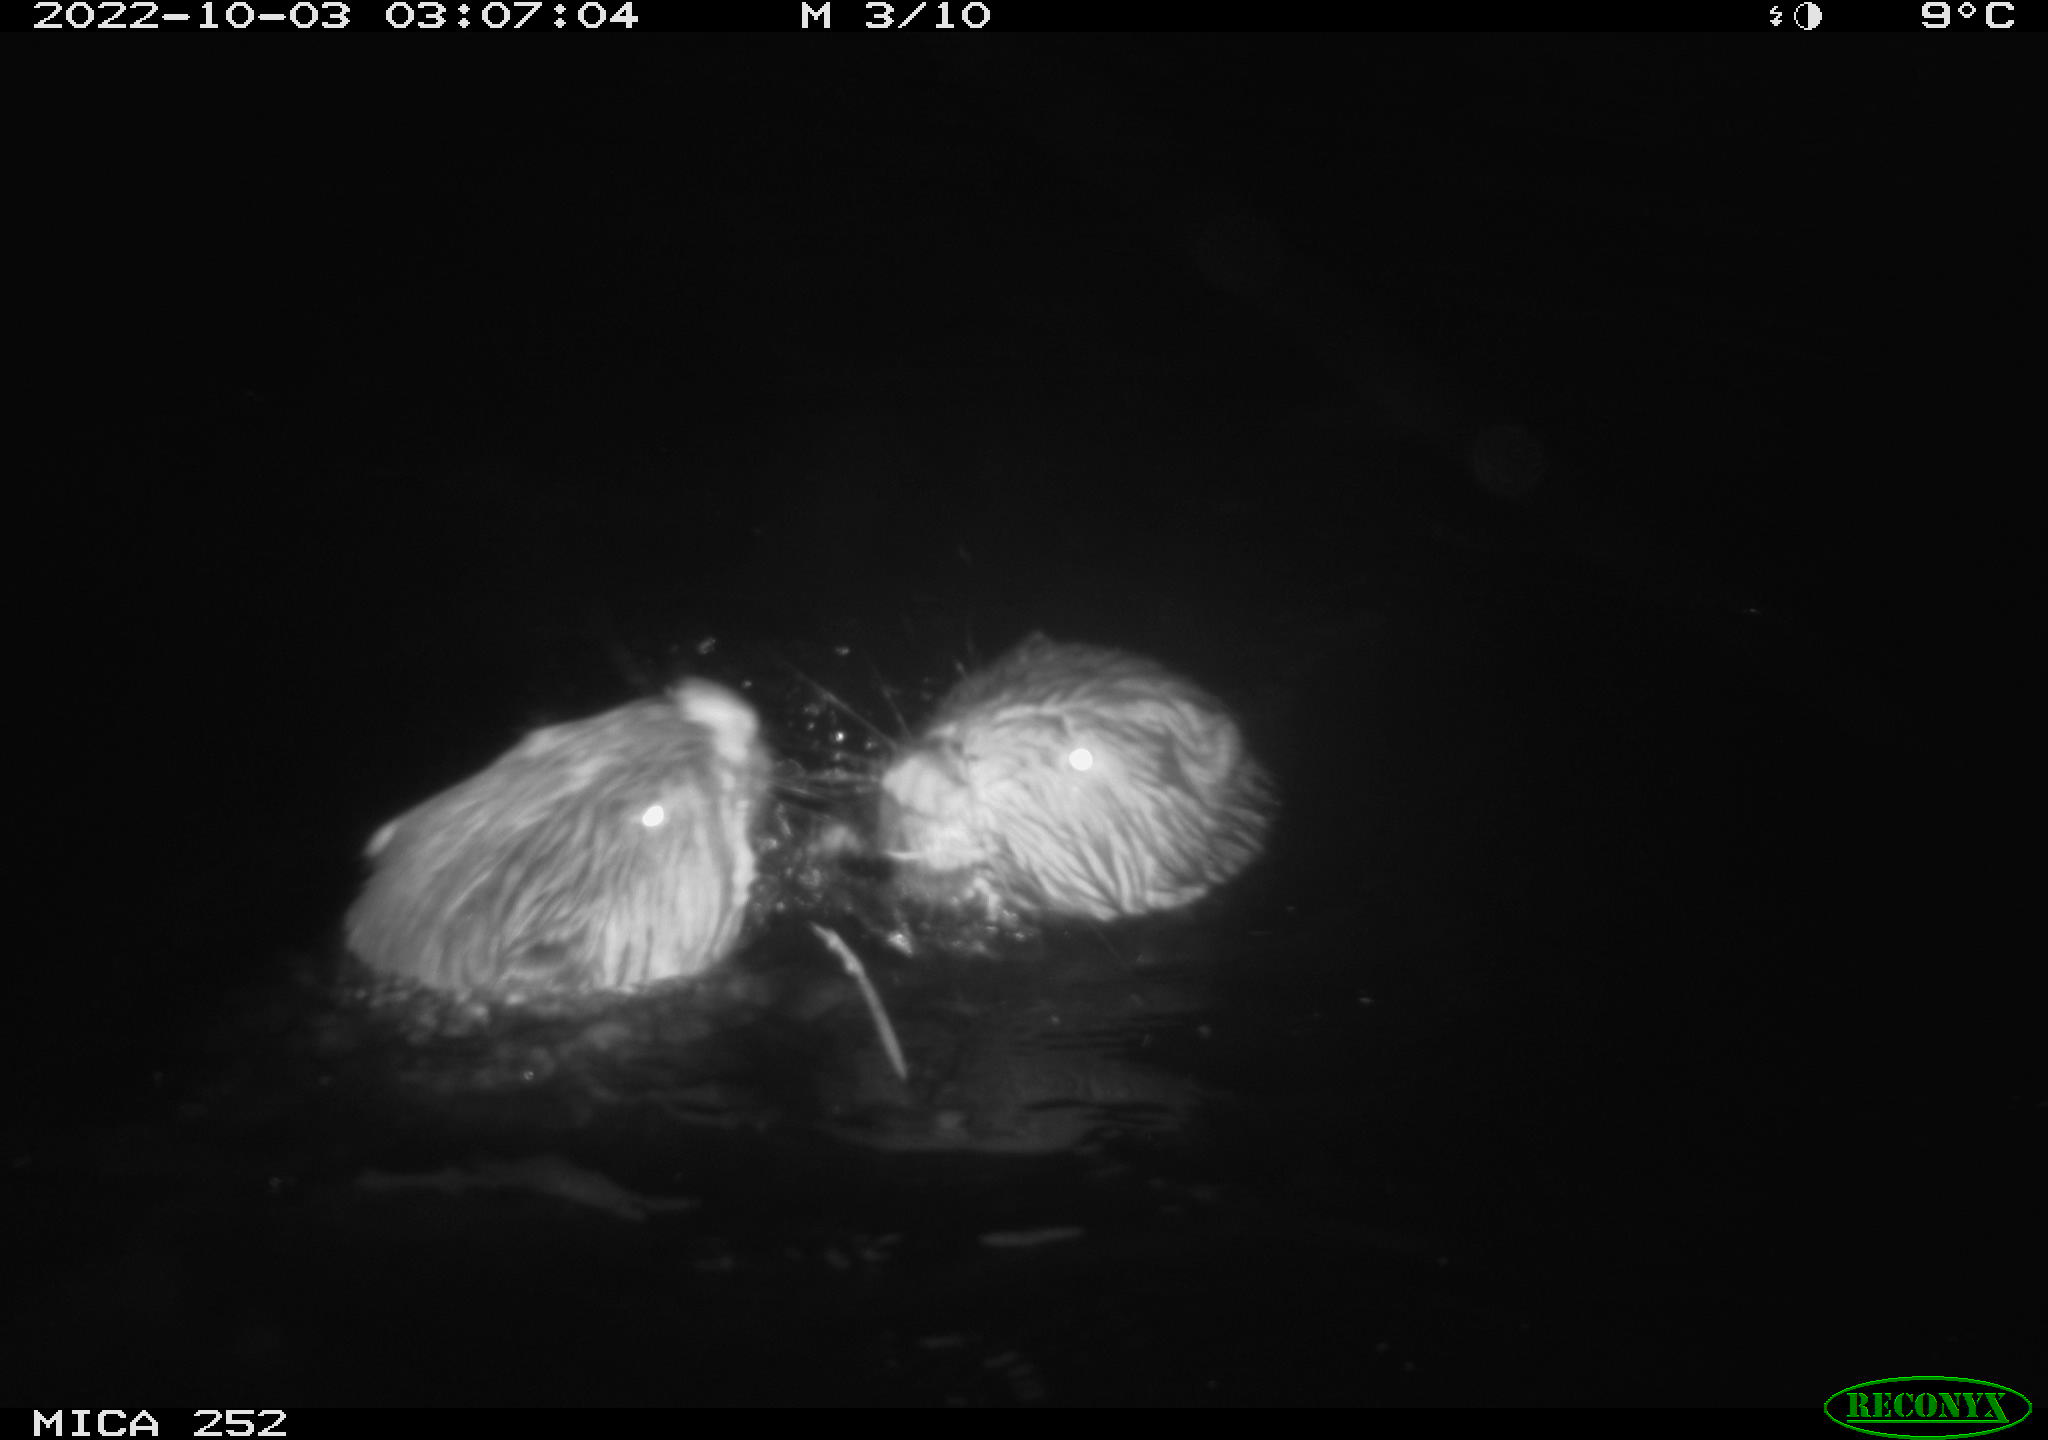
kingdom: Animalia
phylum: Chordata
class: Mammalia
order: Rodentia
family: Castoridae
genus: Castor
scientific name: Castor fiber
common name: Eurasian beaver
